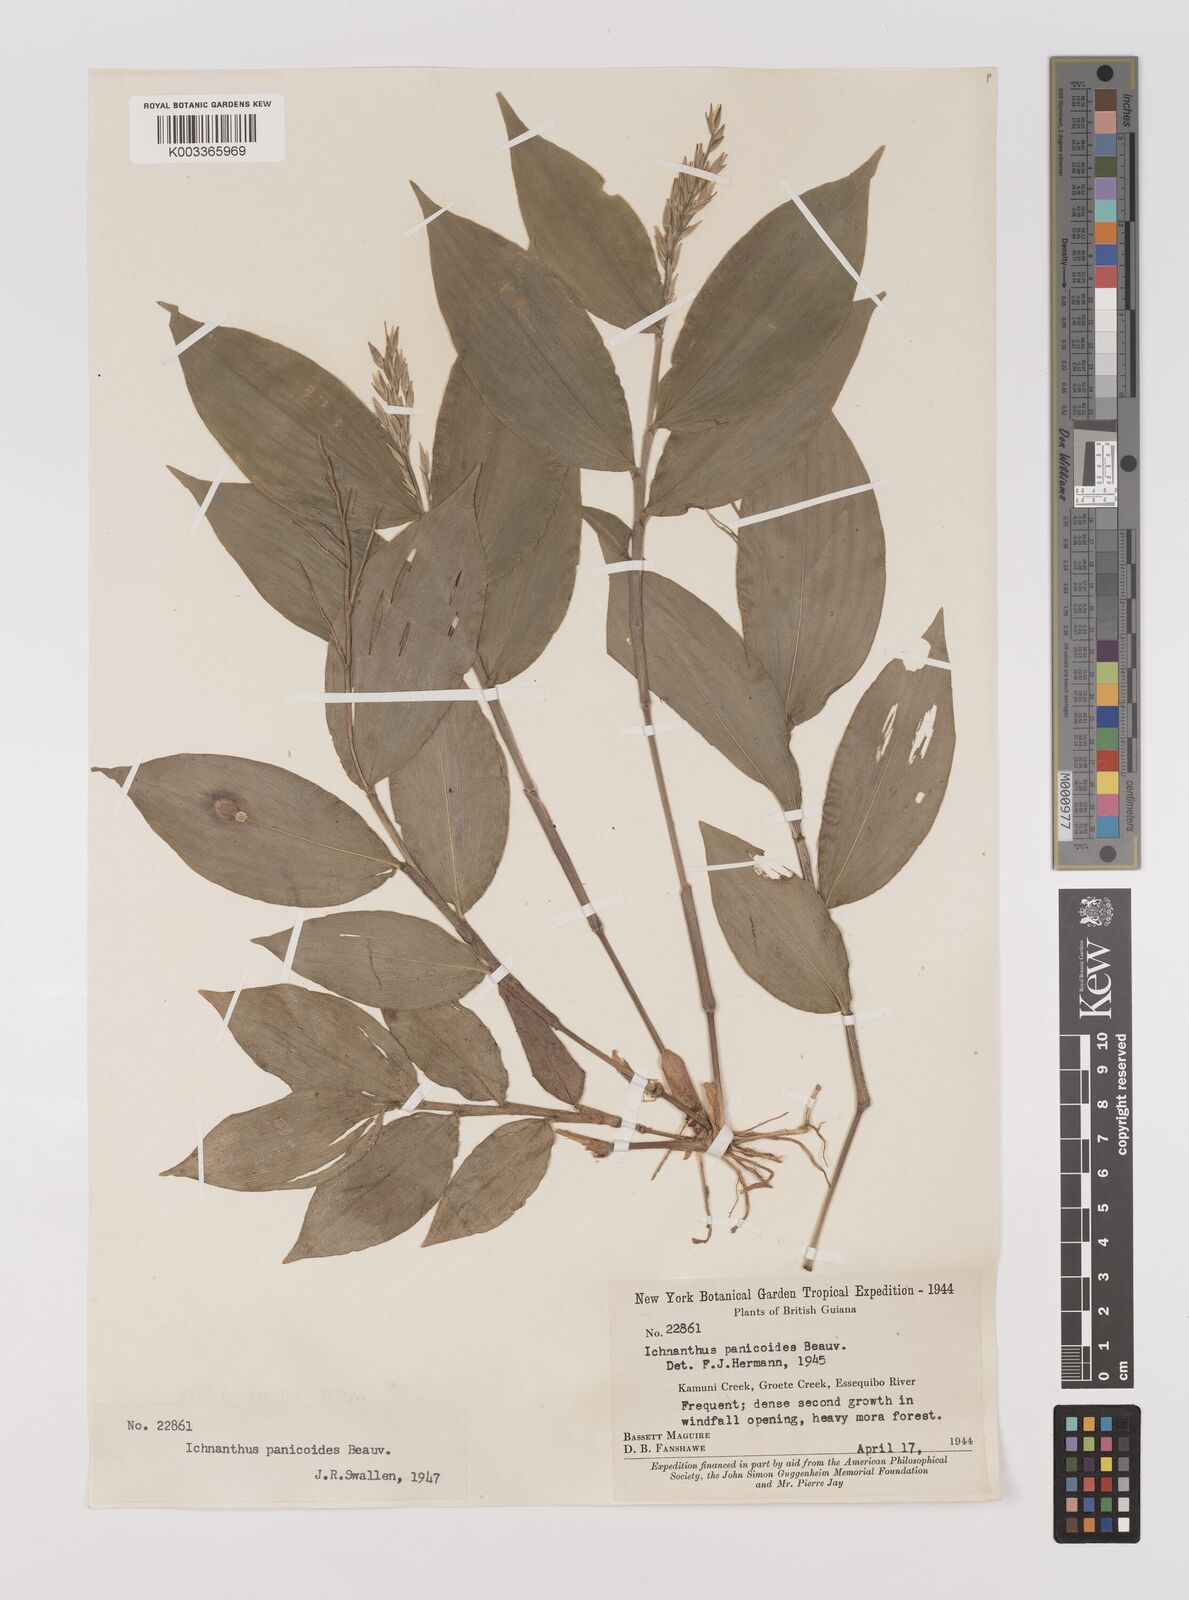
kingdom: Plantae
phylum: Tracheophyta
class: Liliopsida
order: Poales
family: Poaceae
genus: Ichnanthus
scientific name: Ichnanthus panicoides
